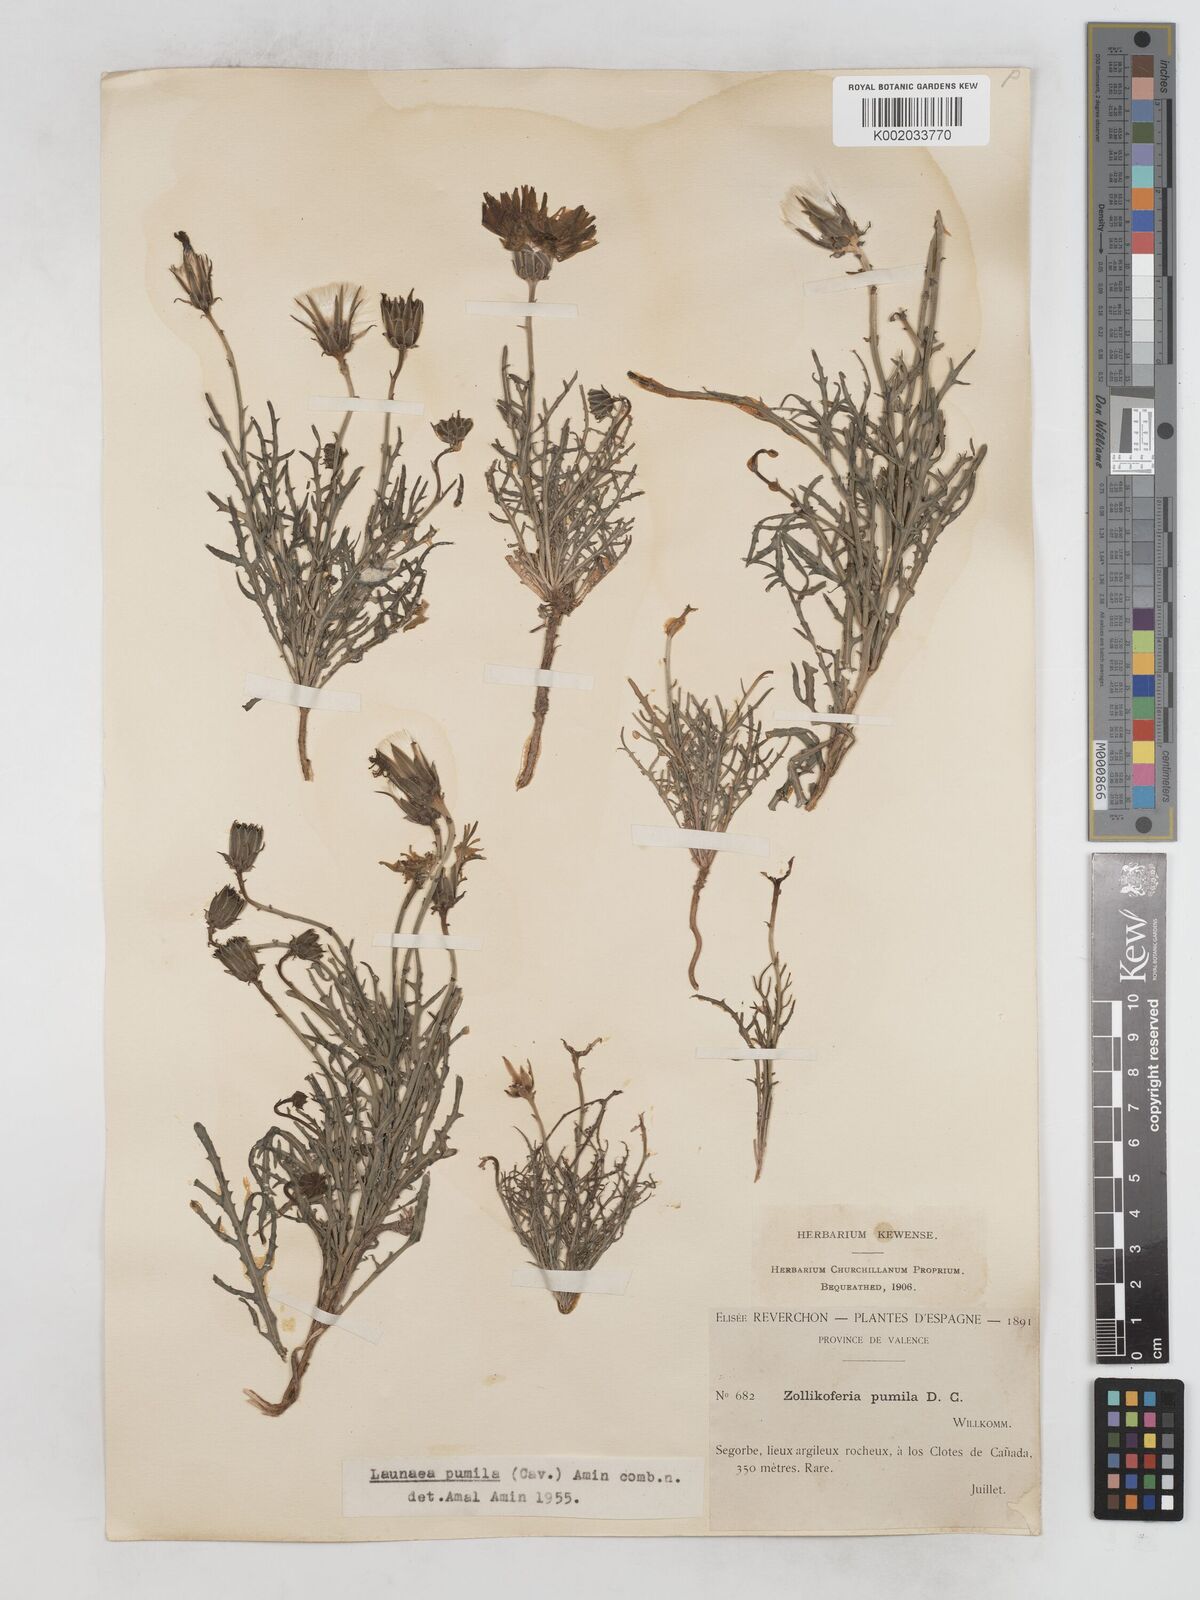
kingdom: Plantae
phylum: Tracheophyta
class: Magnoliopsida
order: Asterales
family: Asteraceae
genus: Launaea
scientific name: Launaea pumila
